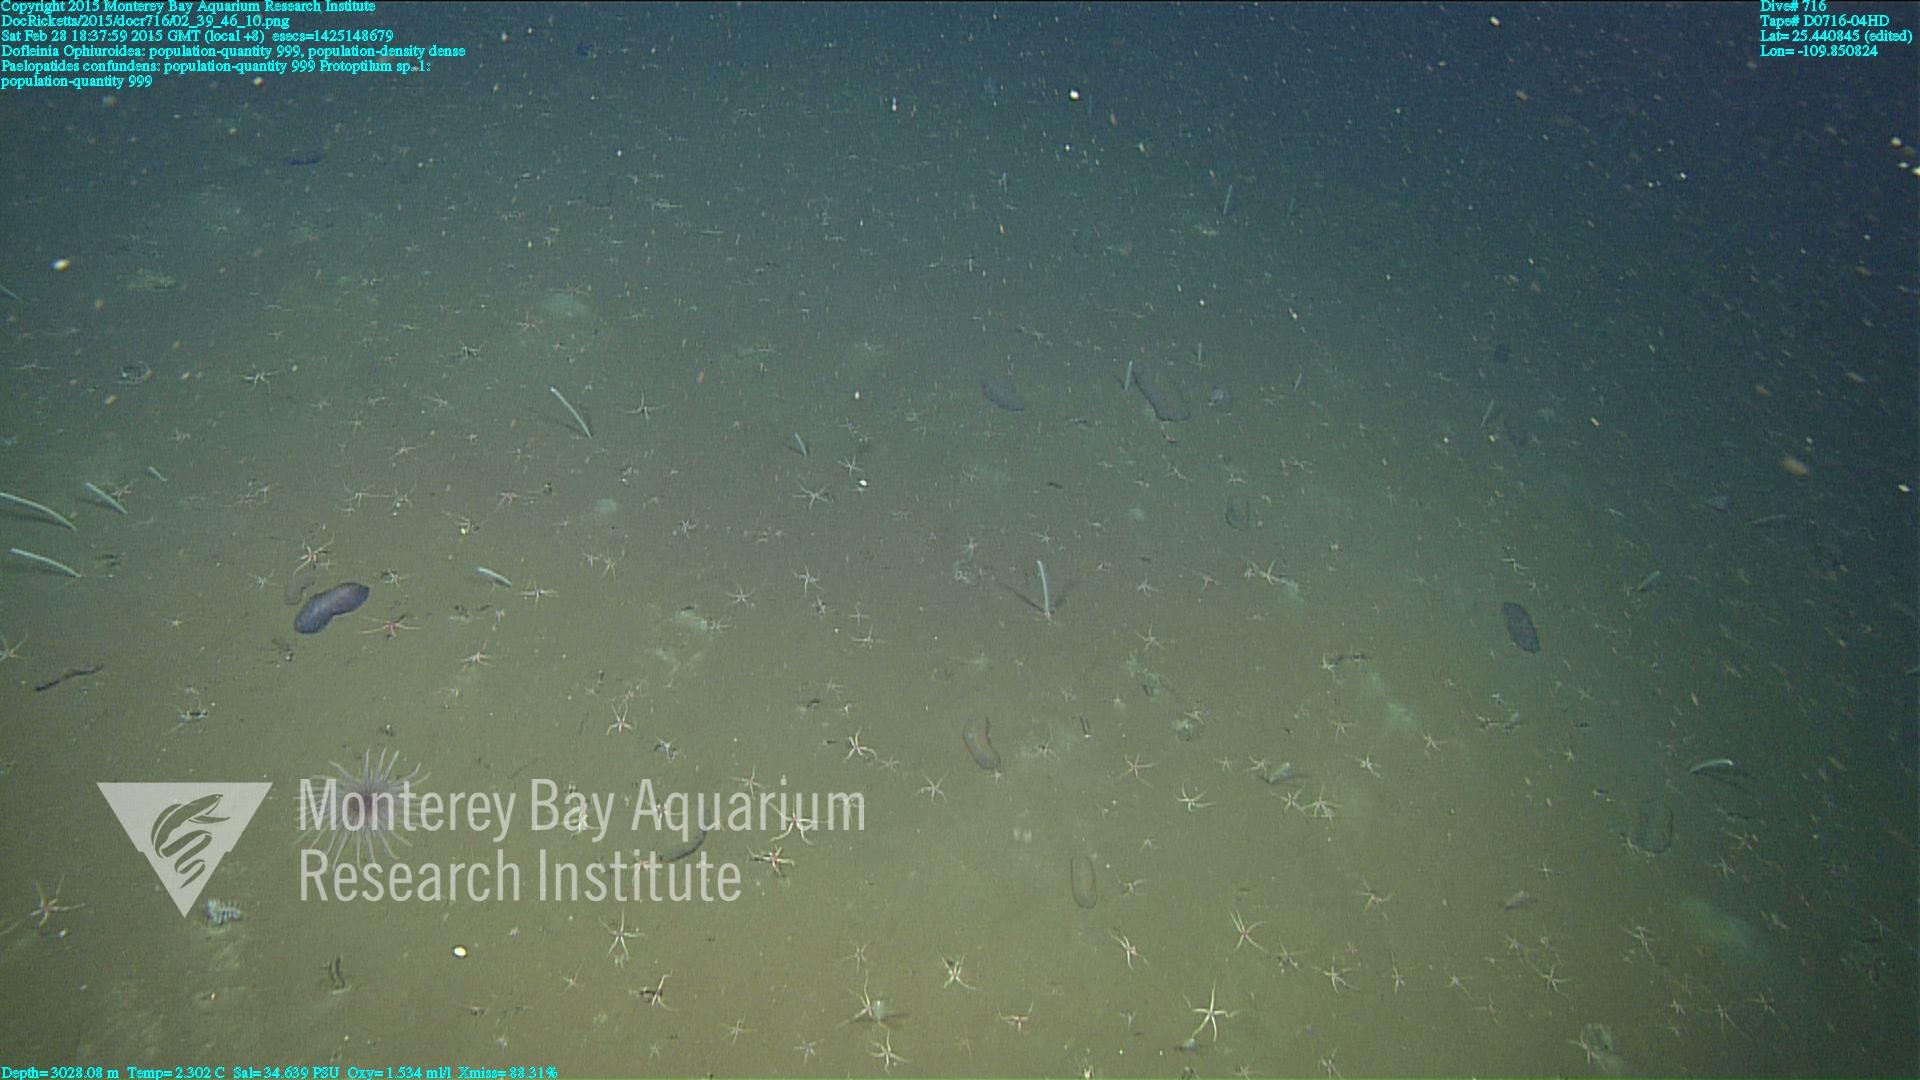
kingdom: Animalia
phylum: Cnidaria
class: Anthozoa
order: Scleralcyonacea
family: Protoptilidae
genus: Protoptilum
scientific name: Protoptilum
